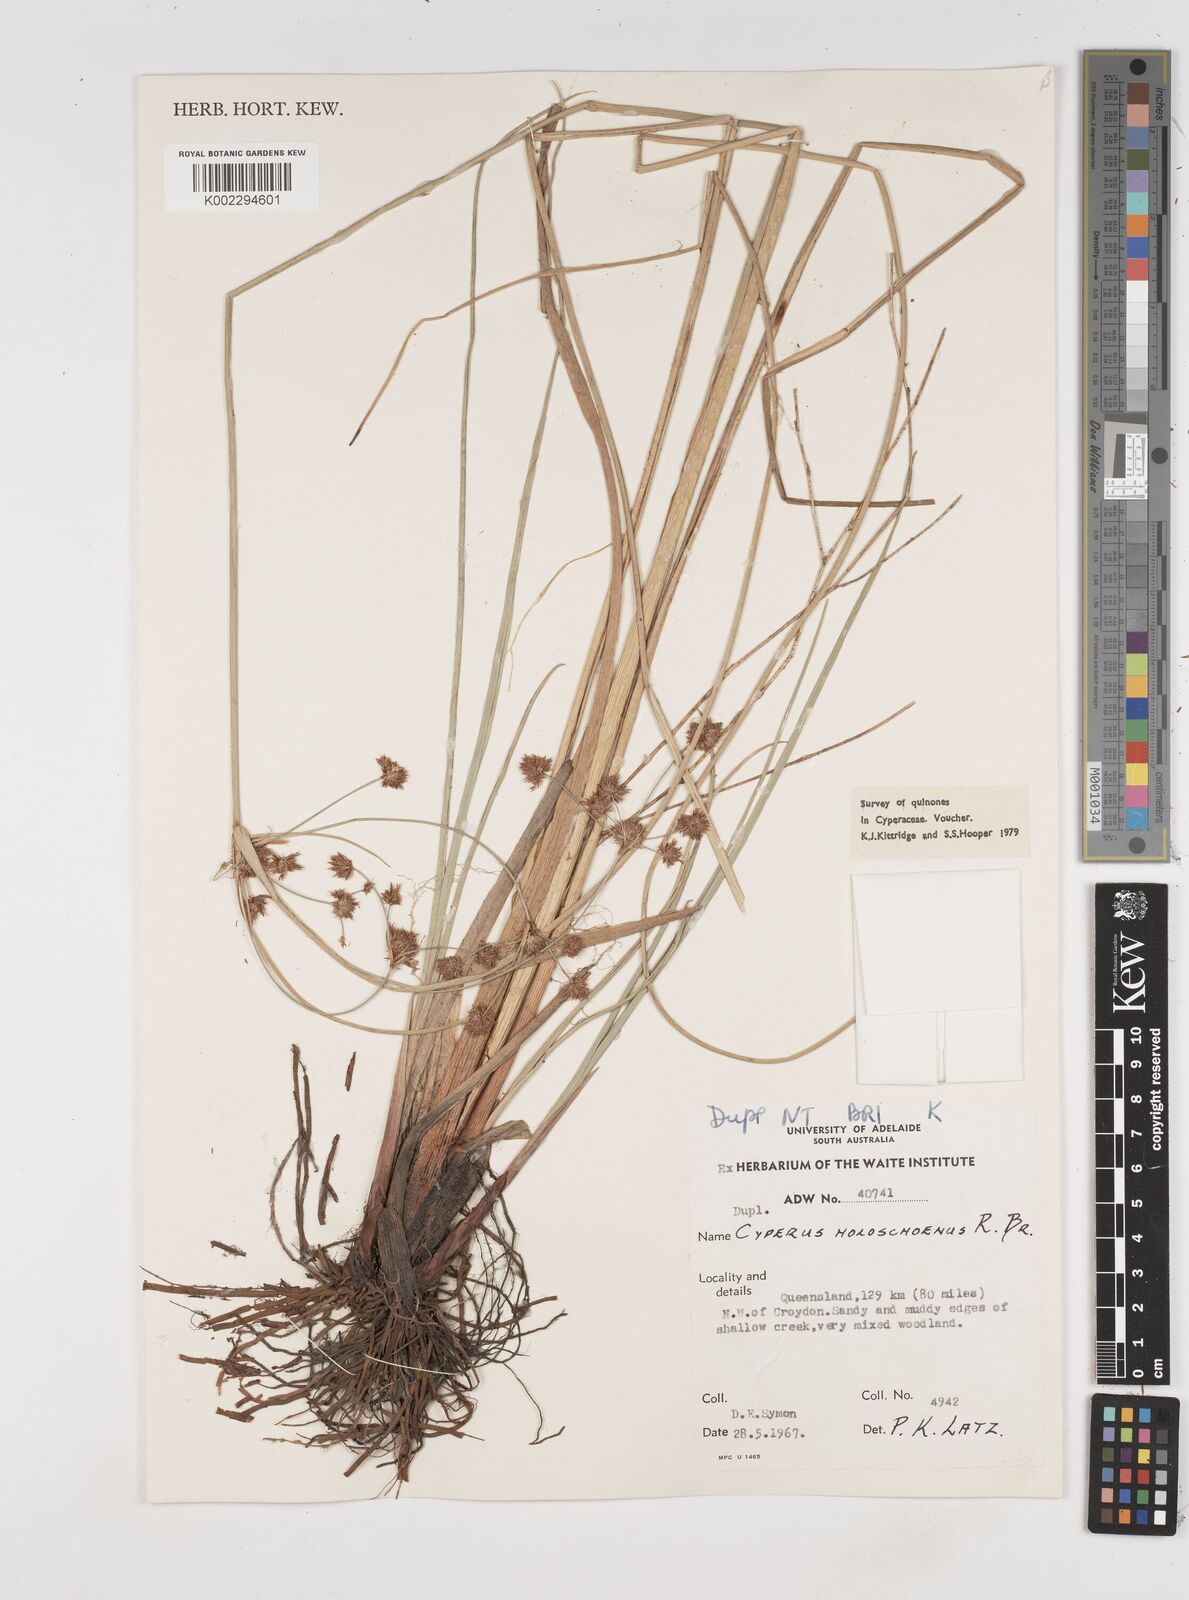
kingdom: Plantae
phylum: Tracheophyta
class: Liliopsida
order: Poales
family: Cyperaceae
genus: Cyperus
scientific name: Cyperus holoschoenus
